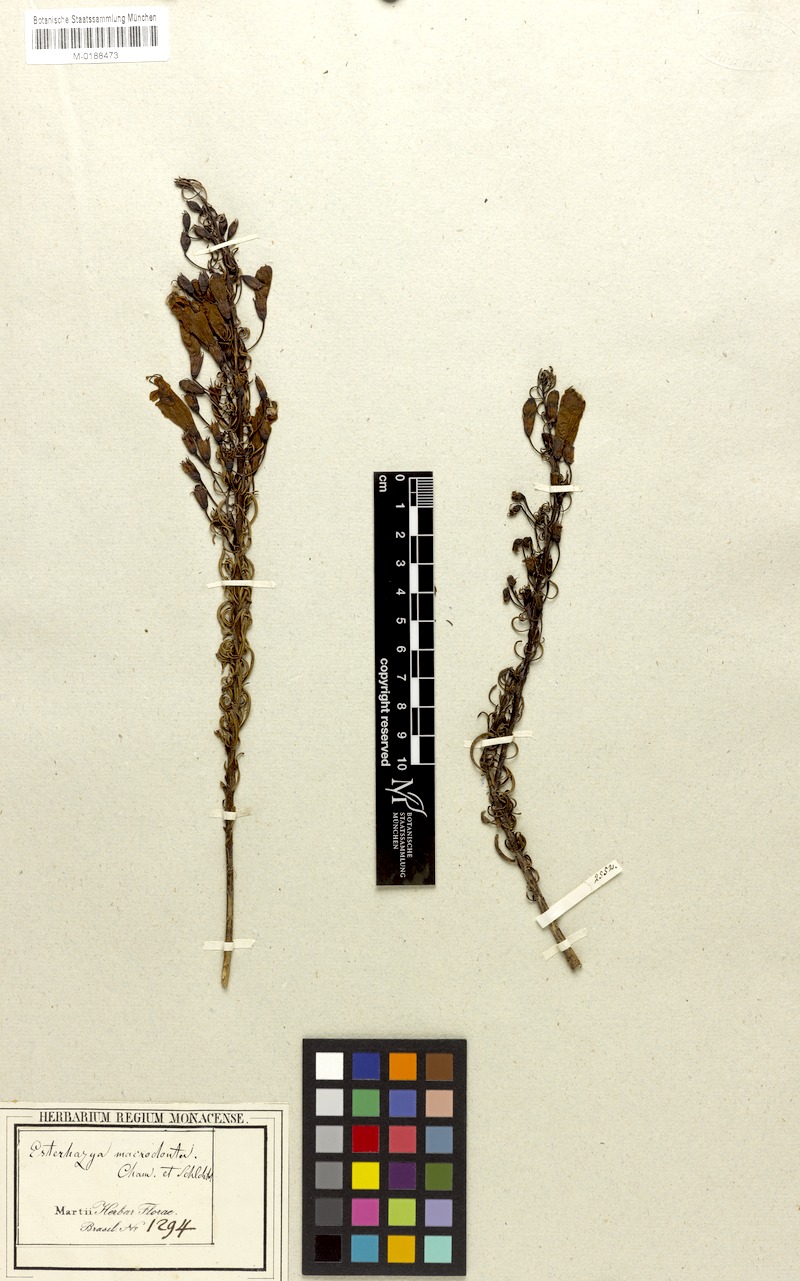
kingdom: Plantae
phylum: Tracheophyta
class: Magnoliopsida
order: Lamiales
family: Orobanchaceae
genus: Esterhazya
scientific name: Esterhazya macrodonta
